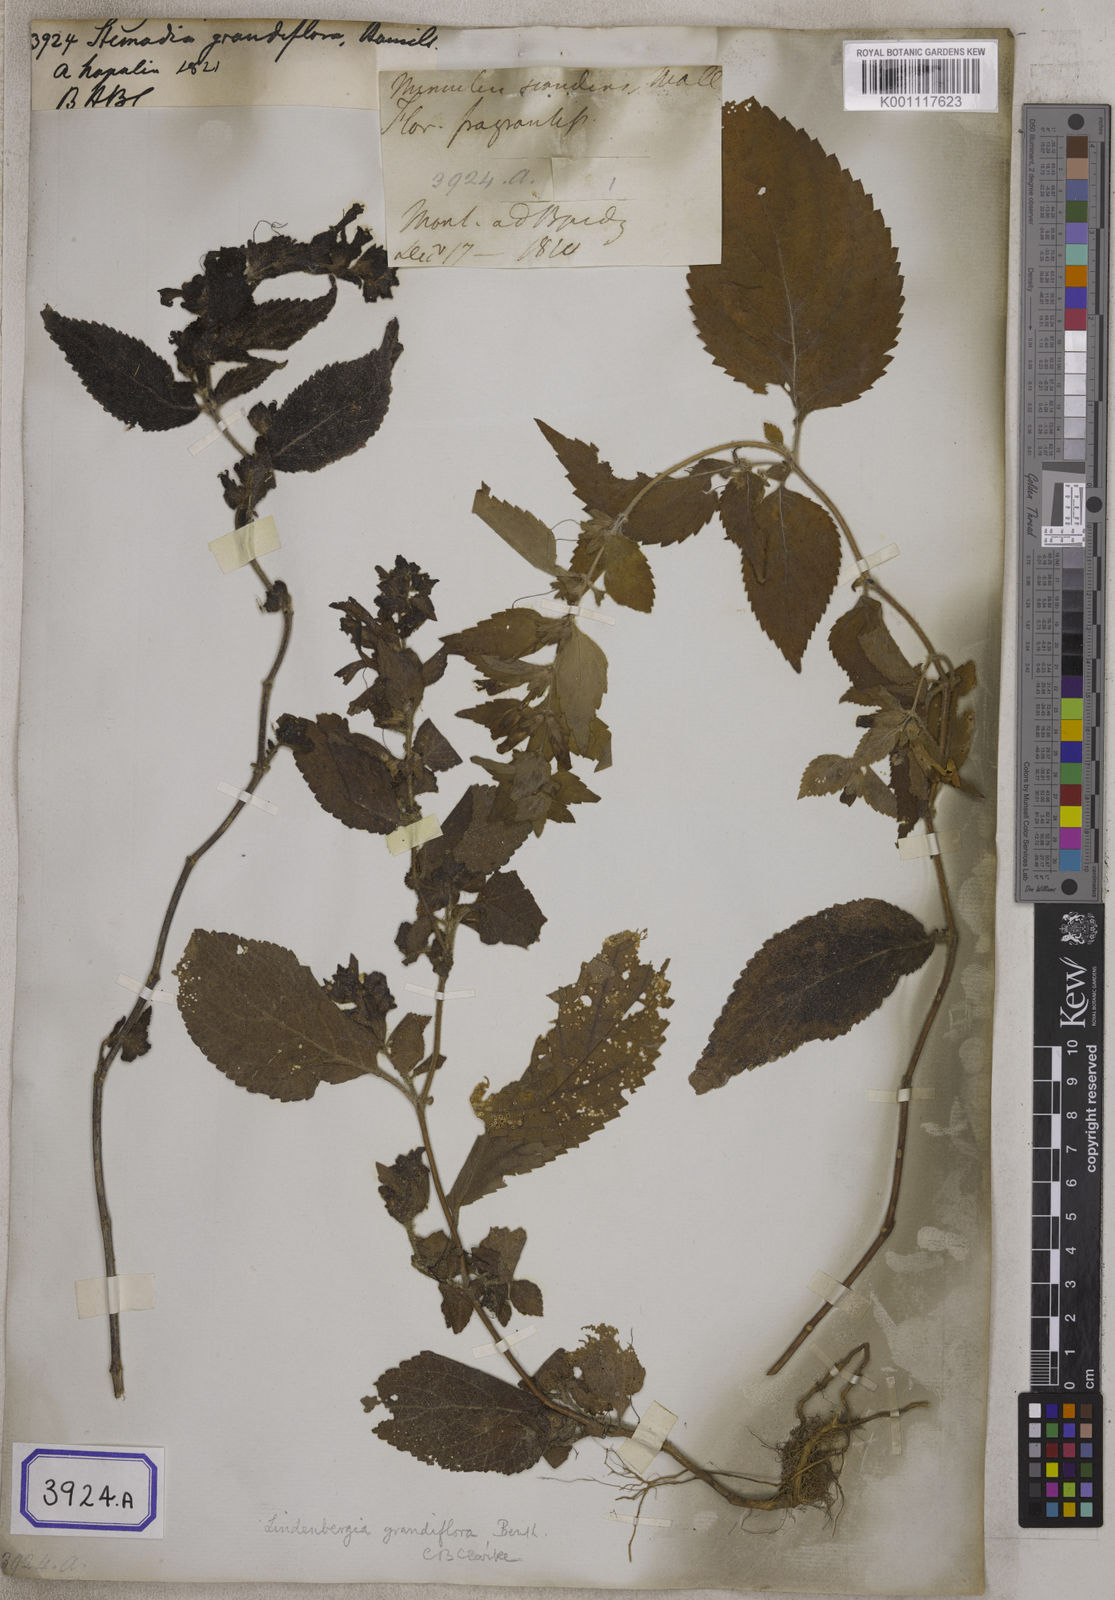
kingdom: Plantae
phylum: Tracheophyta
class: Magnoliopsida
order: Lamiales
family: Orobanchaceae
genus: Lindenbergia
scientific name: Lindenbergia grandiflora
